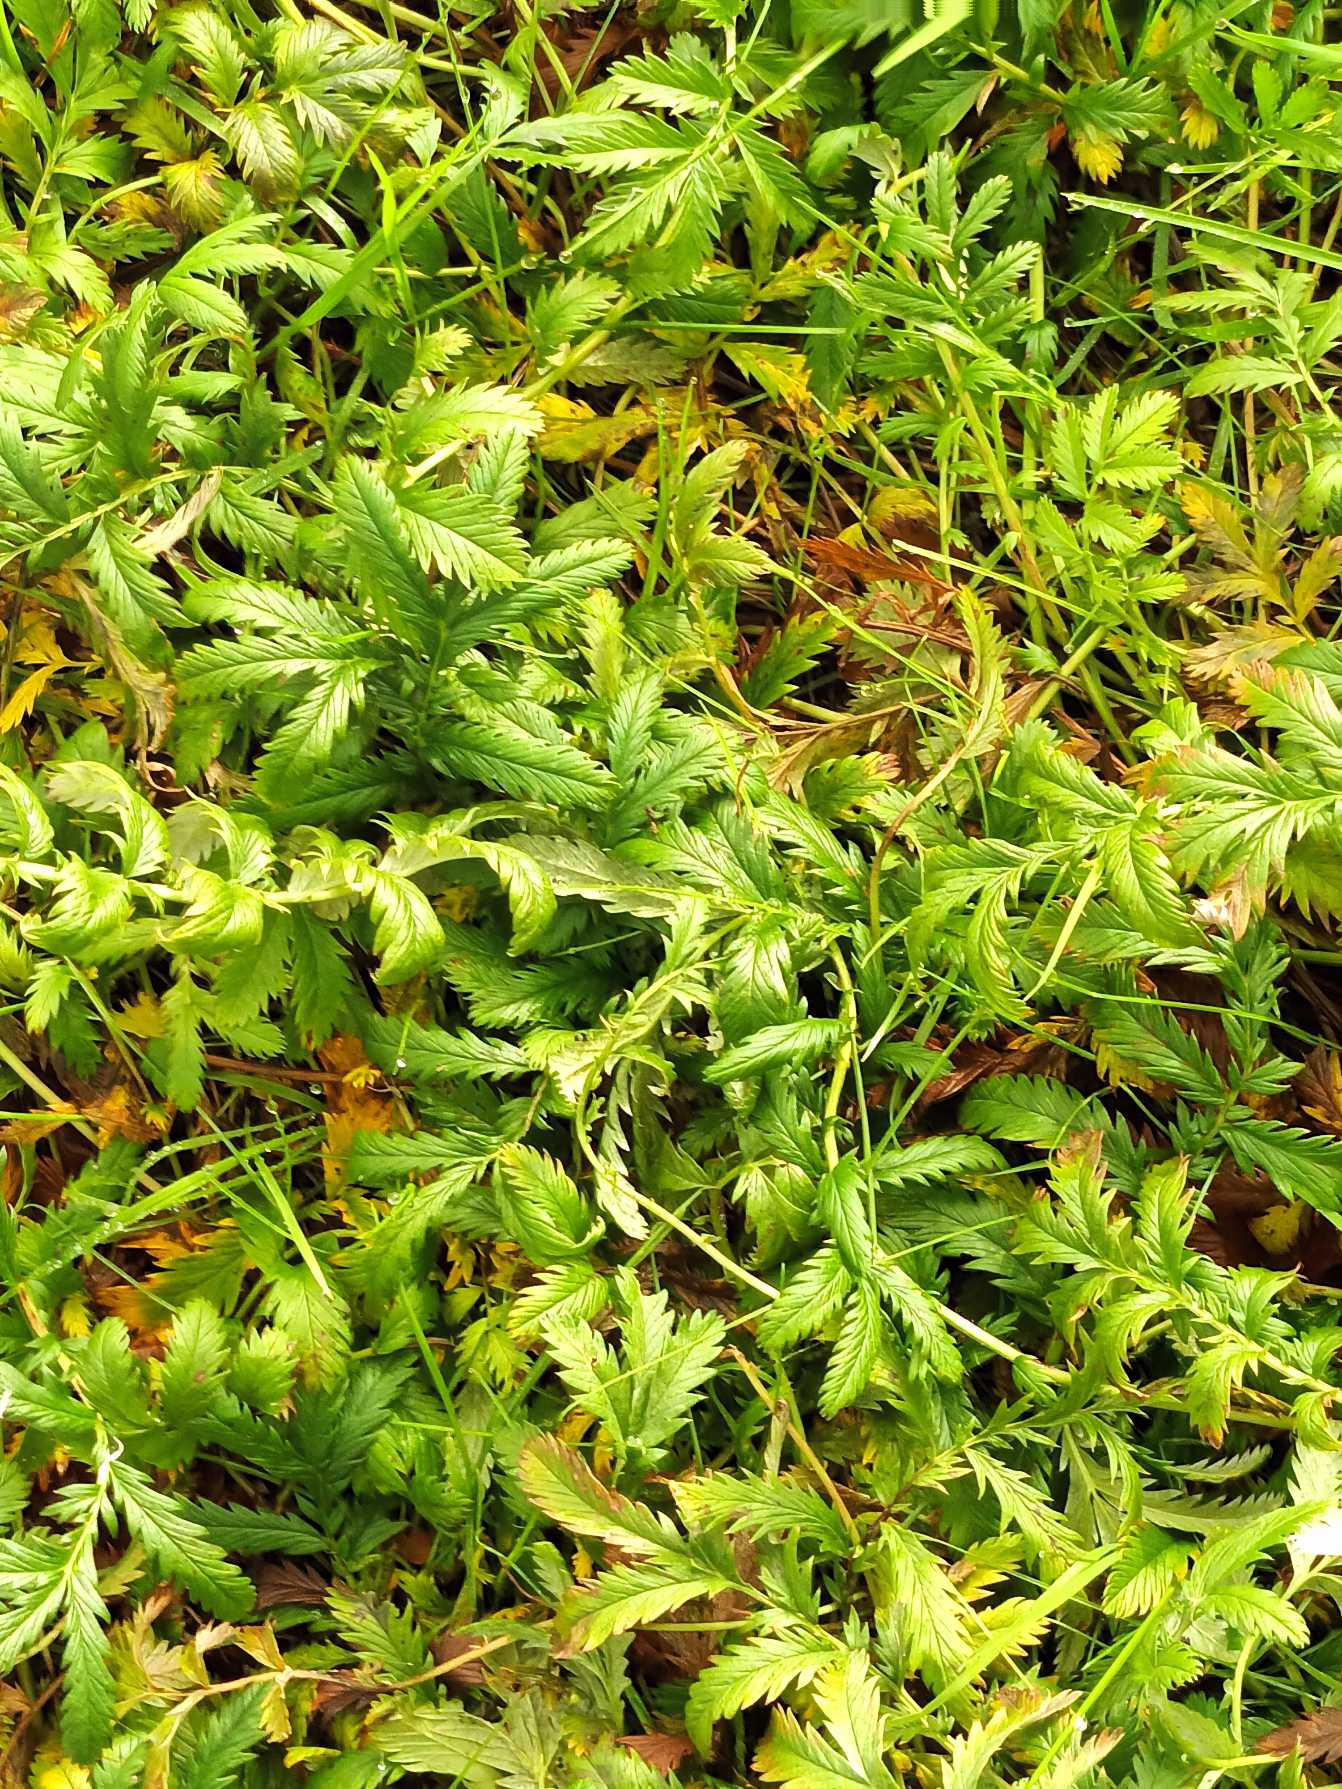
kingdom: Plantae
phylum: Tracheophyta
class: Magnoliopsida
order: Rosales
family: Rosaceae
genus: Argentina
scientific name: Argentina anserina
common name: Gåsepotentil
